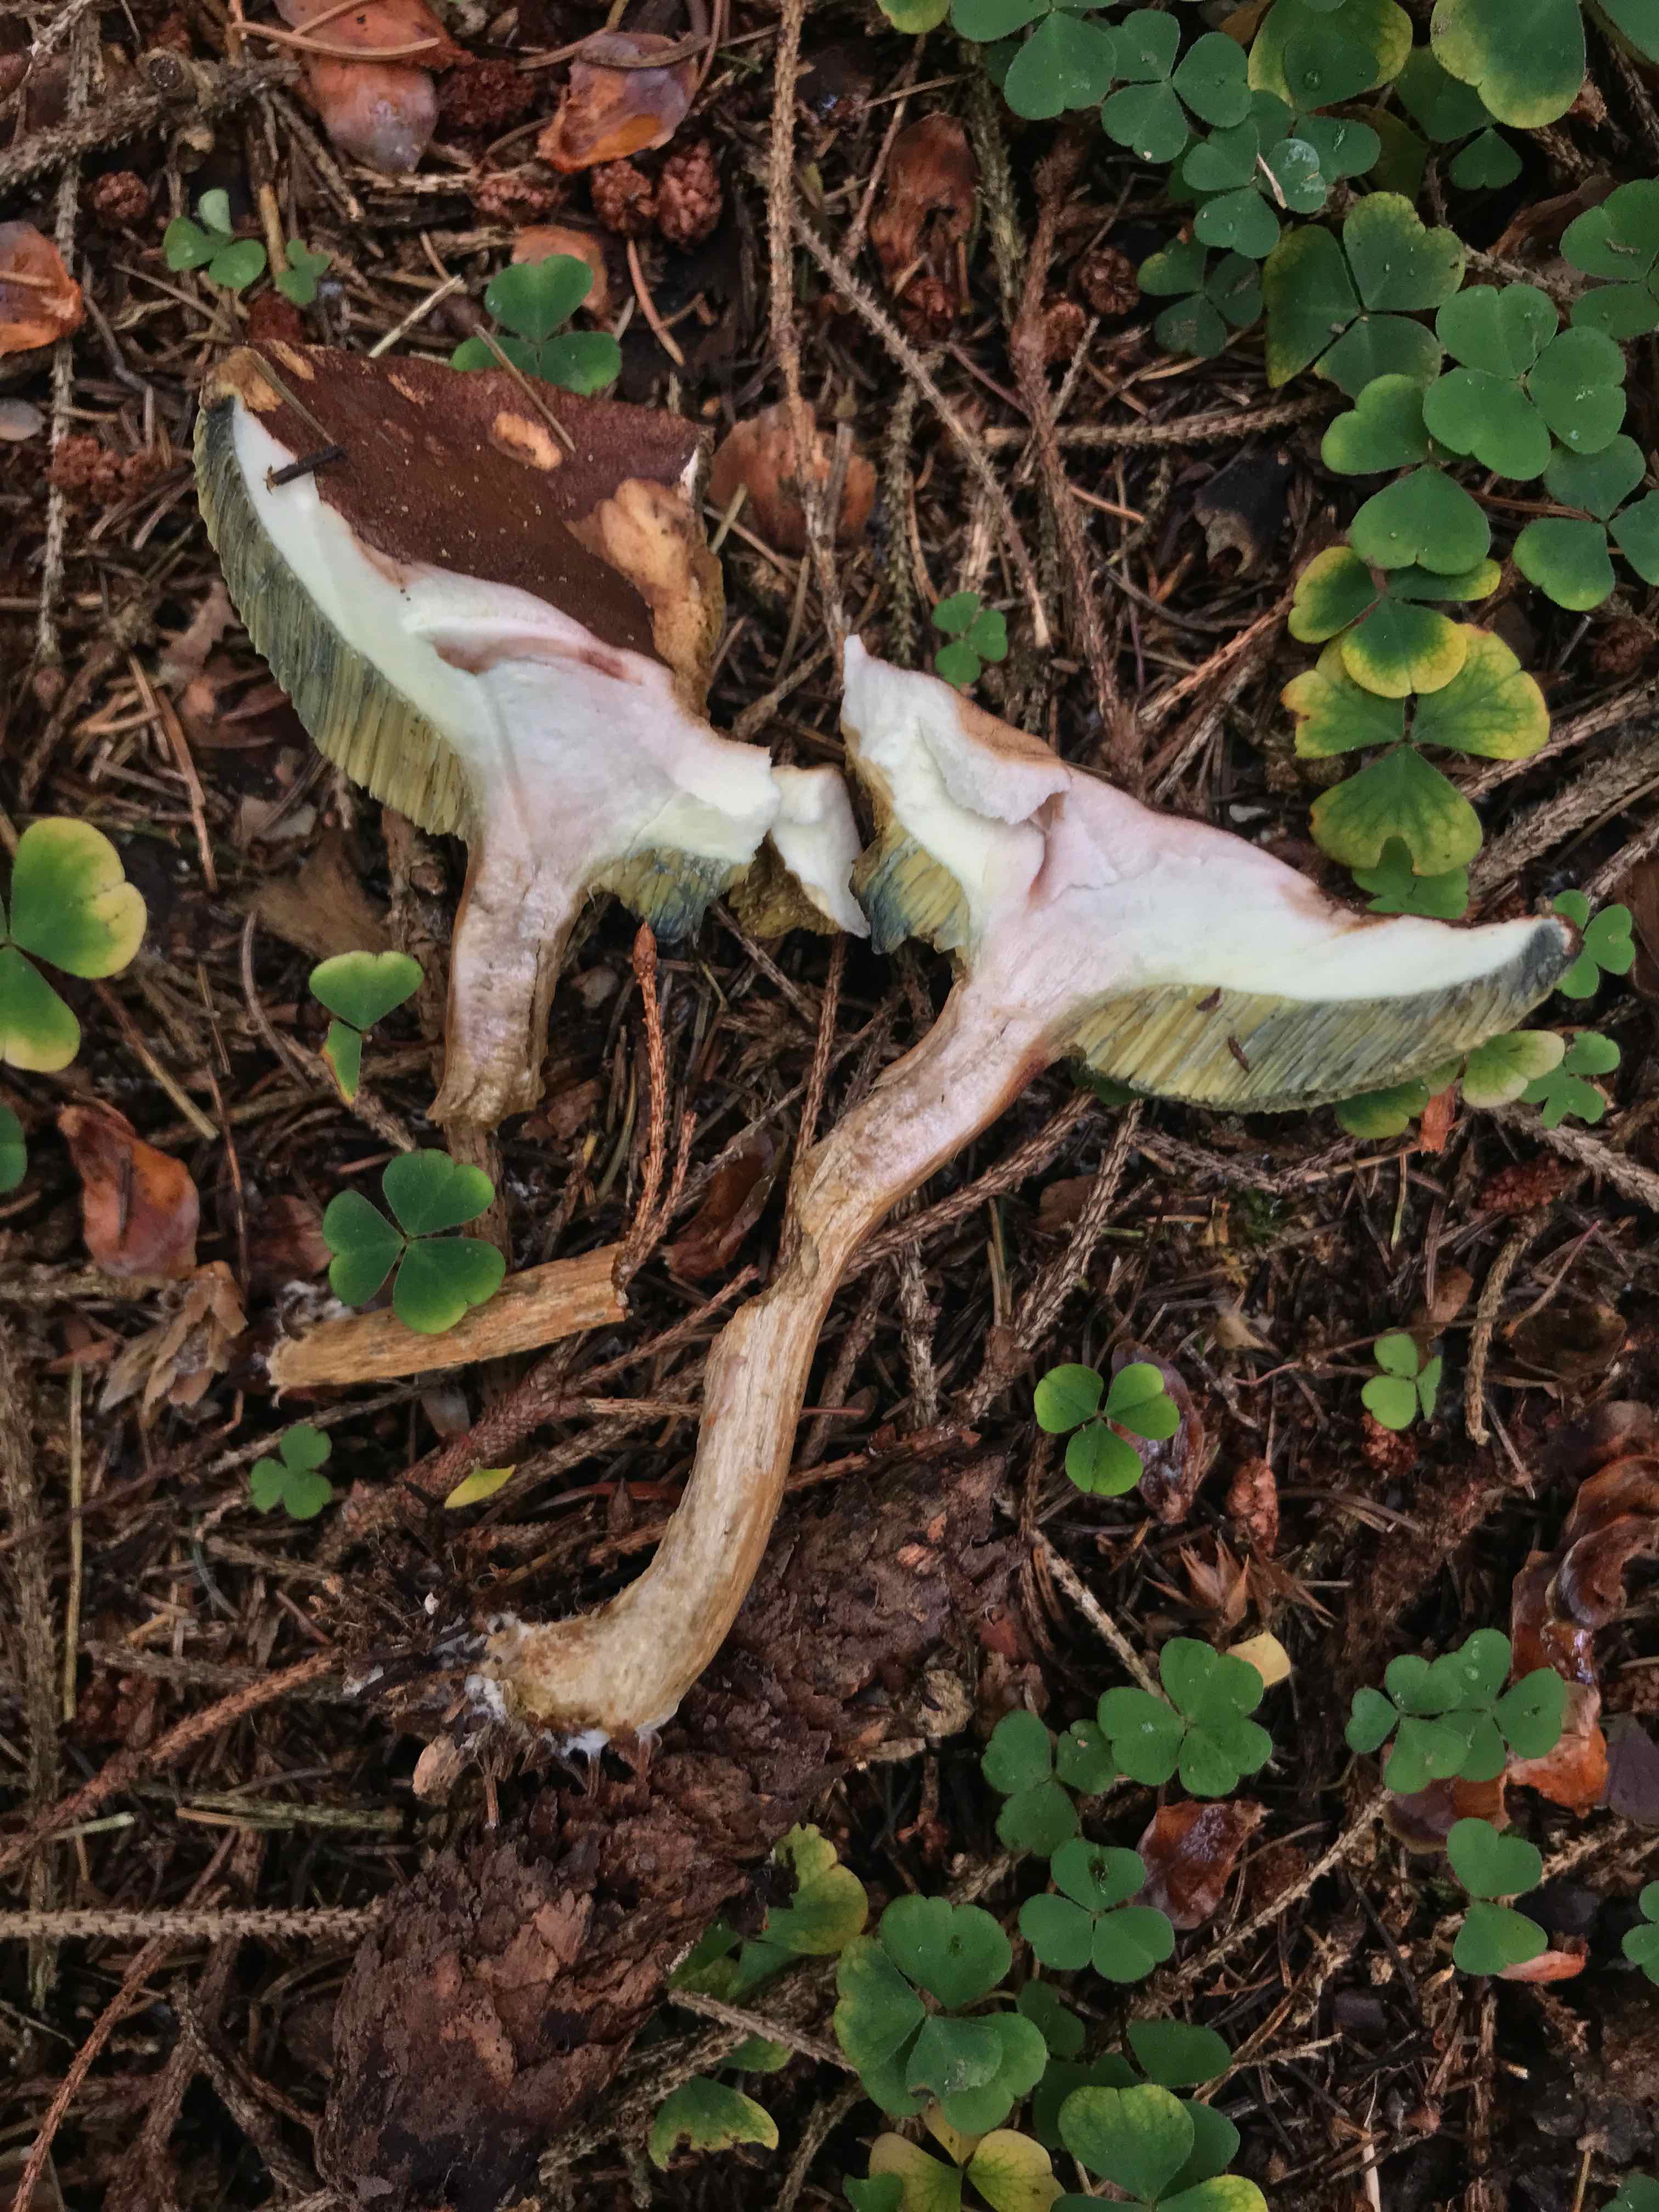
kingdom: Fungi
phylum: Basidiomycota
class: Agaricomycetes
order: Boletales
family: Boletaceae
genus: Imleria
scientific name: Imleria badia
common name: brunstokket rørhat
